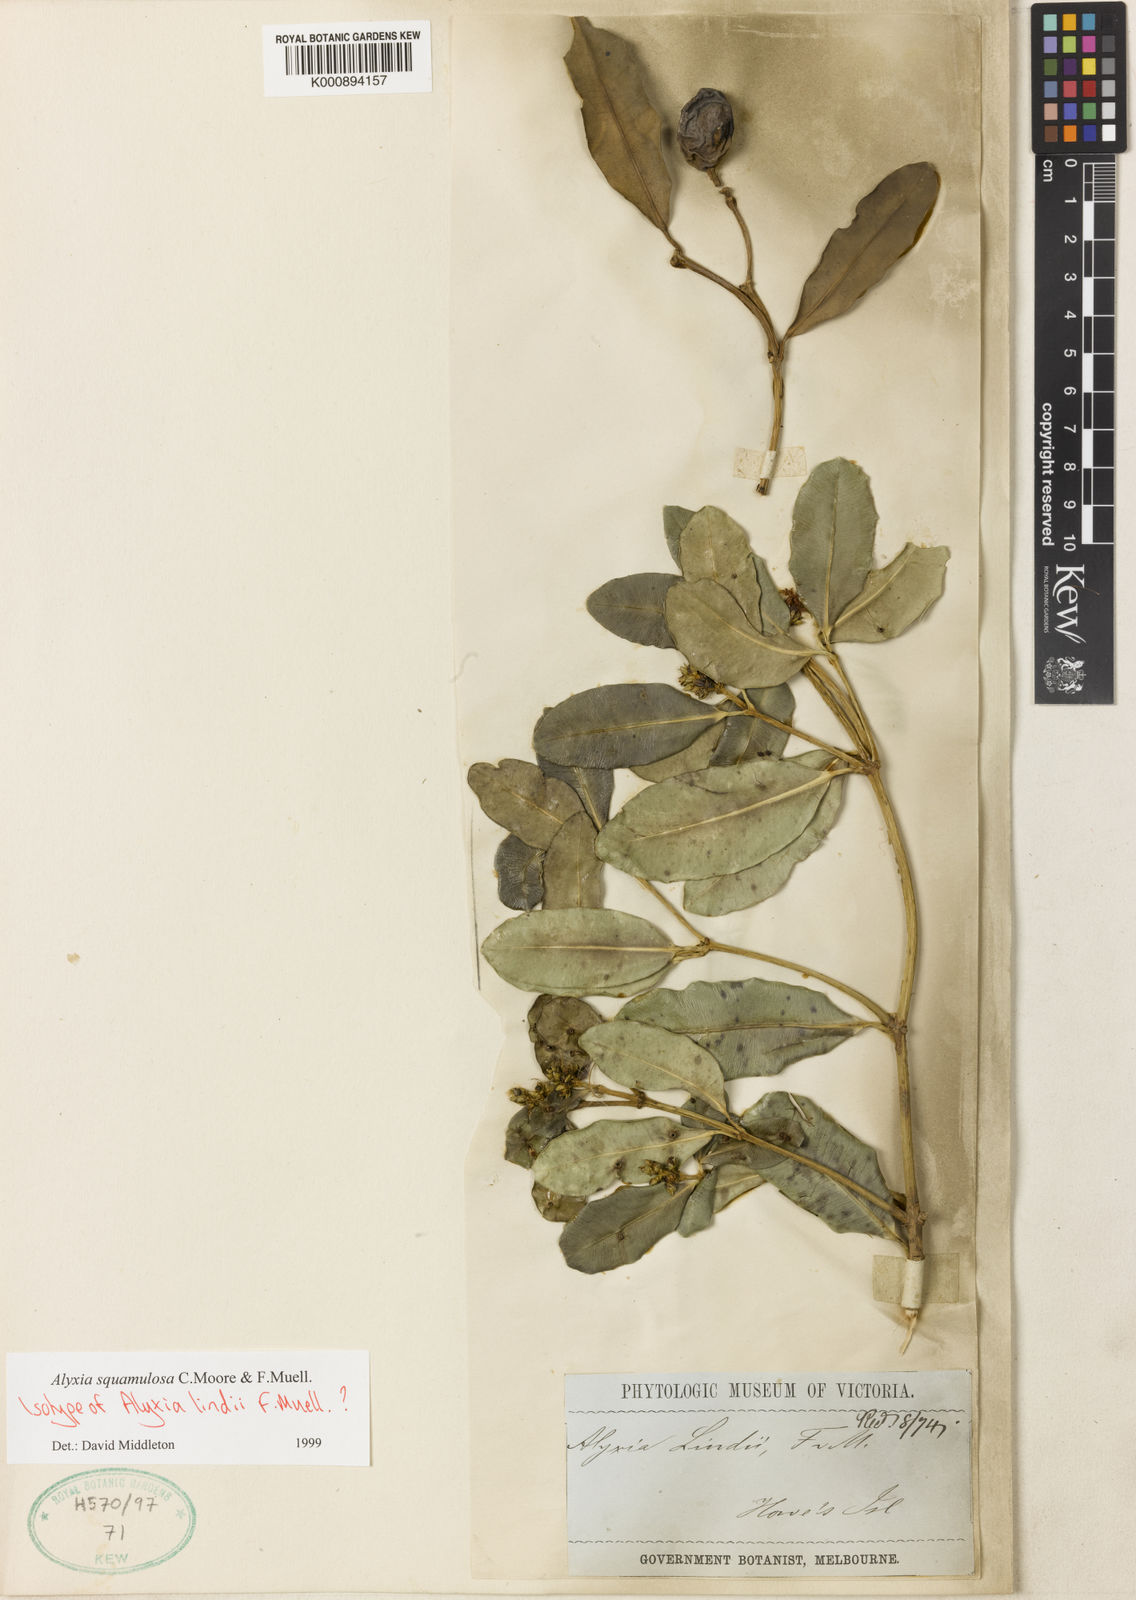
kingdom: Plantae
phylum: Tracheophyta
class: Magnoliopsida
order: Gentianales
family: Apocynaceae
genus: Alyxia
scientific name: Alyxia squamulosa
